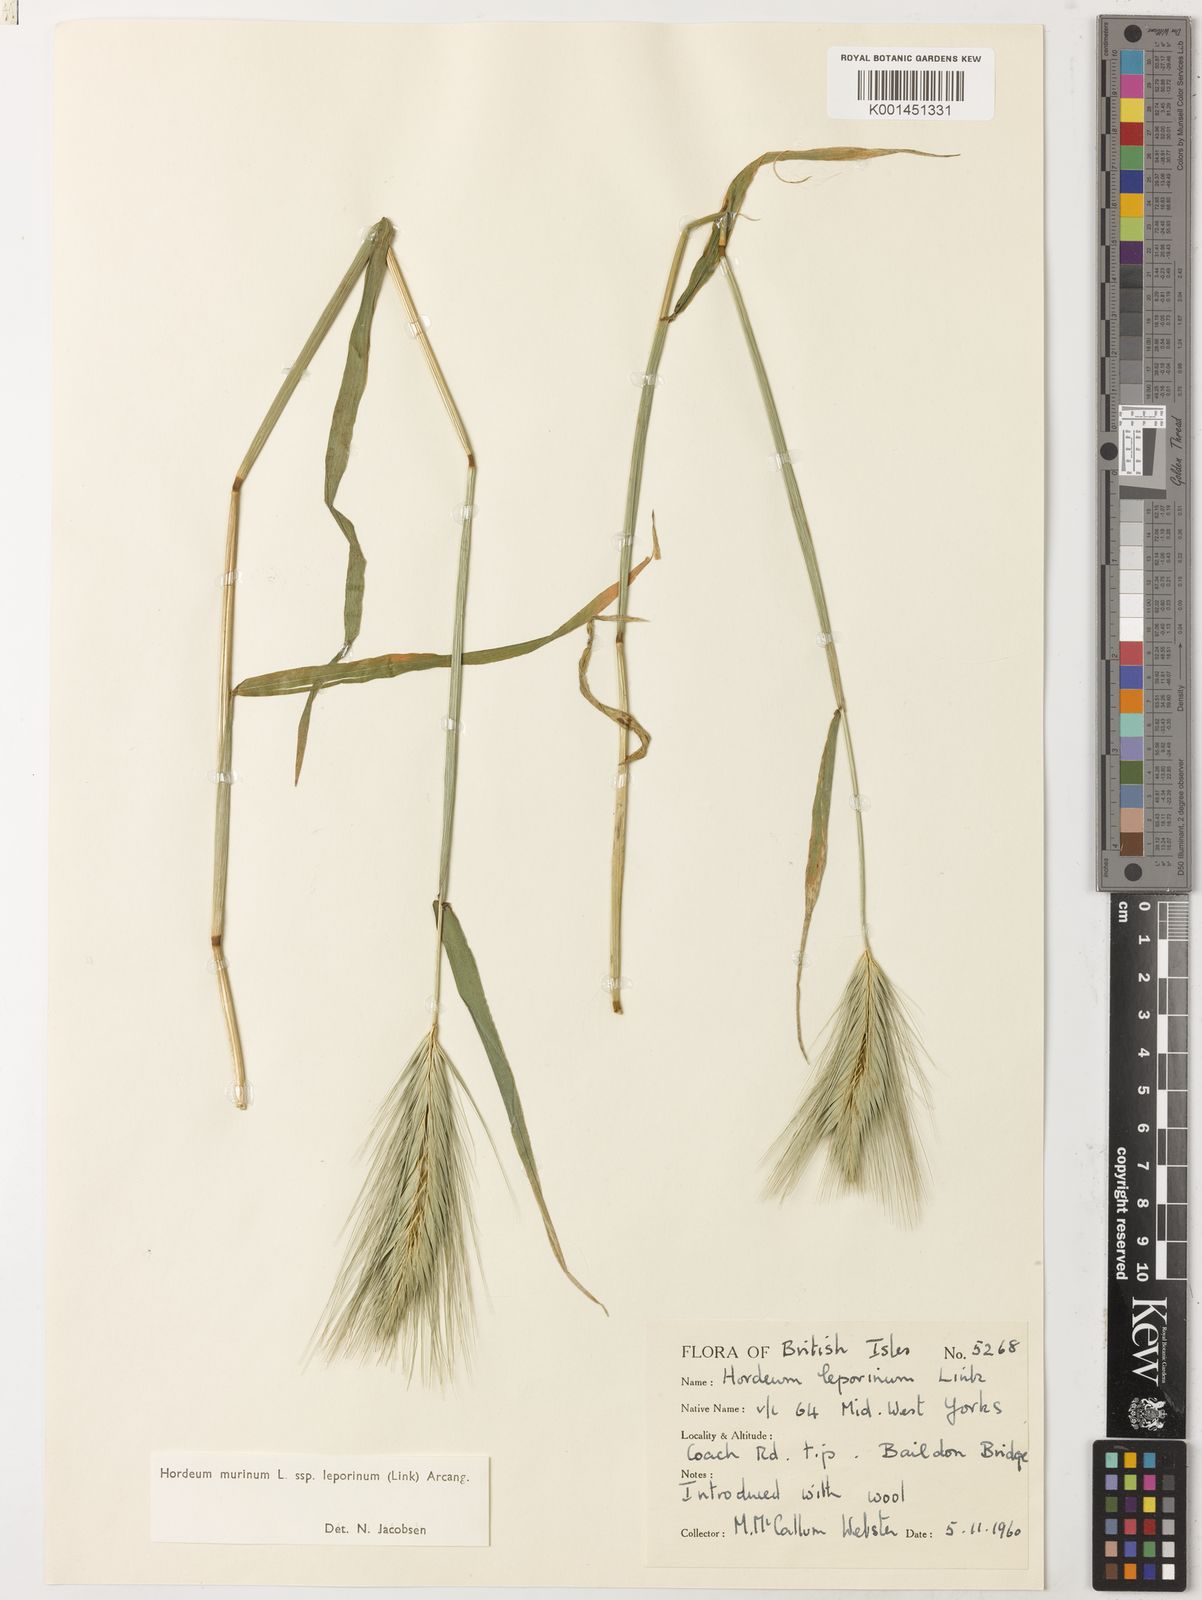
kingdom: Plantae
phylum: Tracheophyta
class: Liliopsida
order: Poales
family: Poaceae
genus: Hordeum
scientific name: Hordeum murinum
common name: Wall barley
